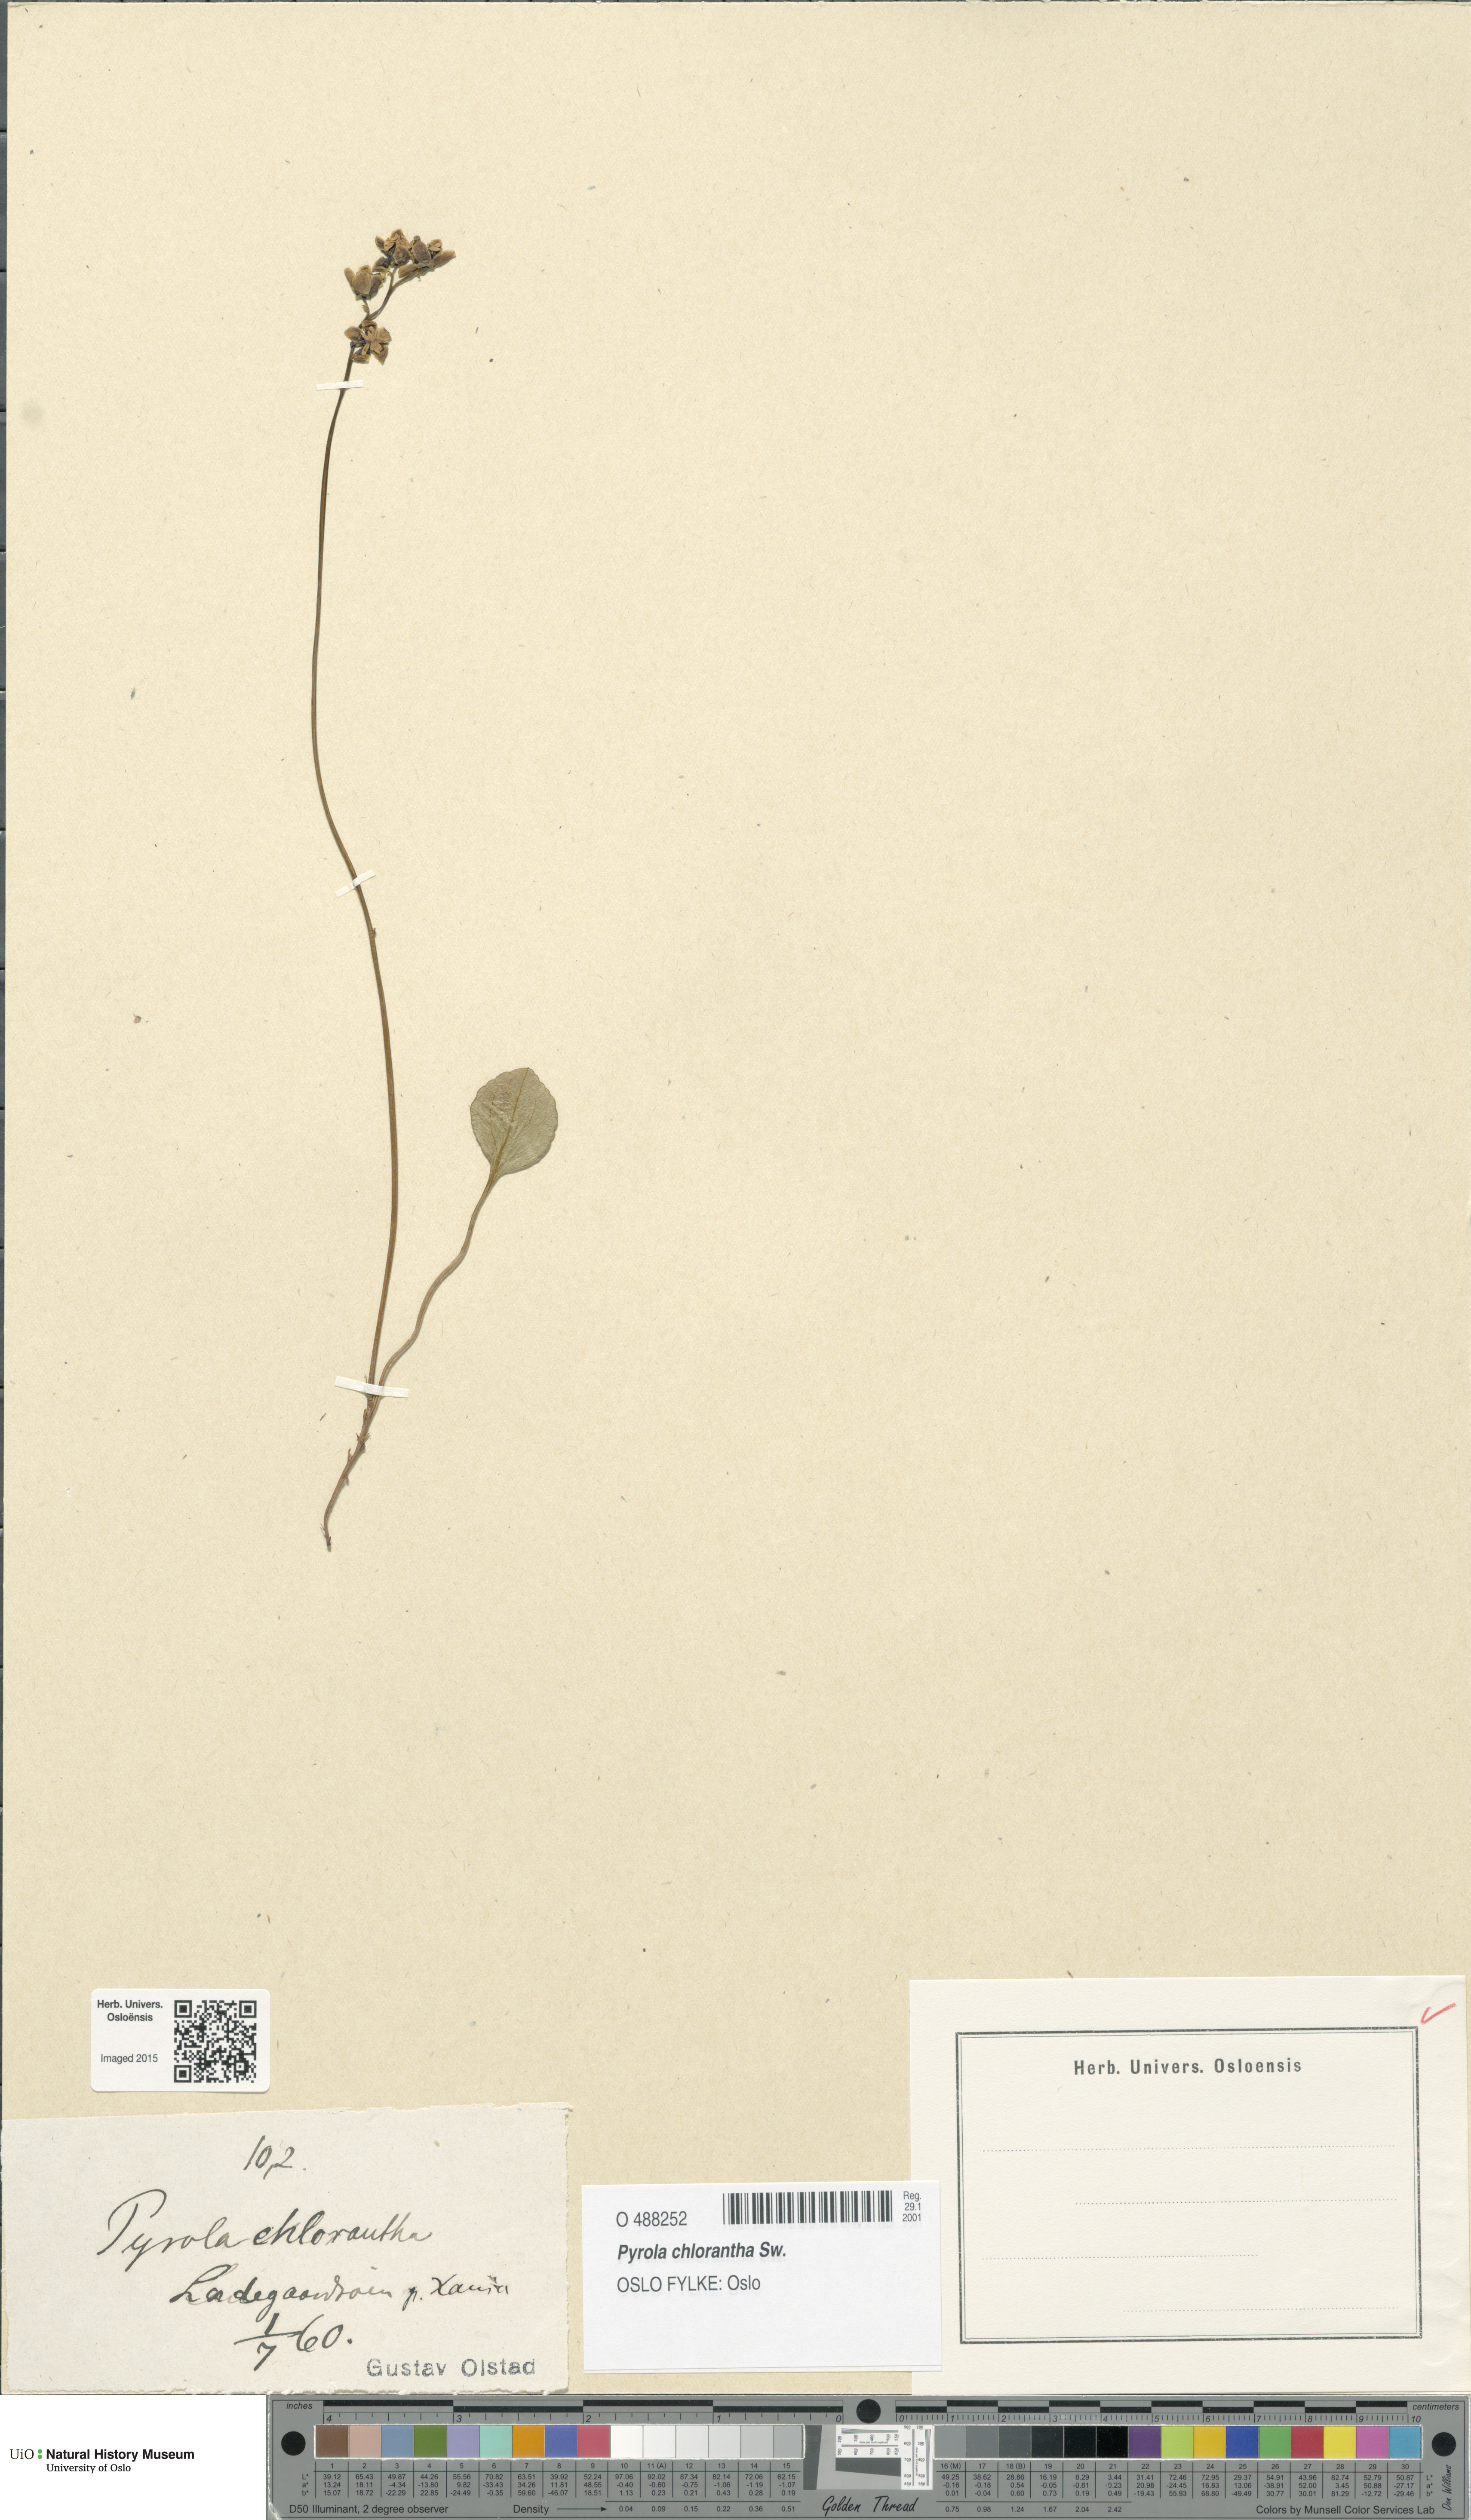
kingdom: Plantae
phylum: Tracheophyta
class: Magnoliopsida
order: Ericales
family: Ericaceae
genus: Pyrola
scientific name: Pyrola chlorantha
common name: Green wintergreen
